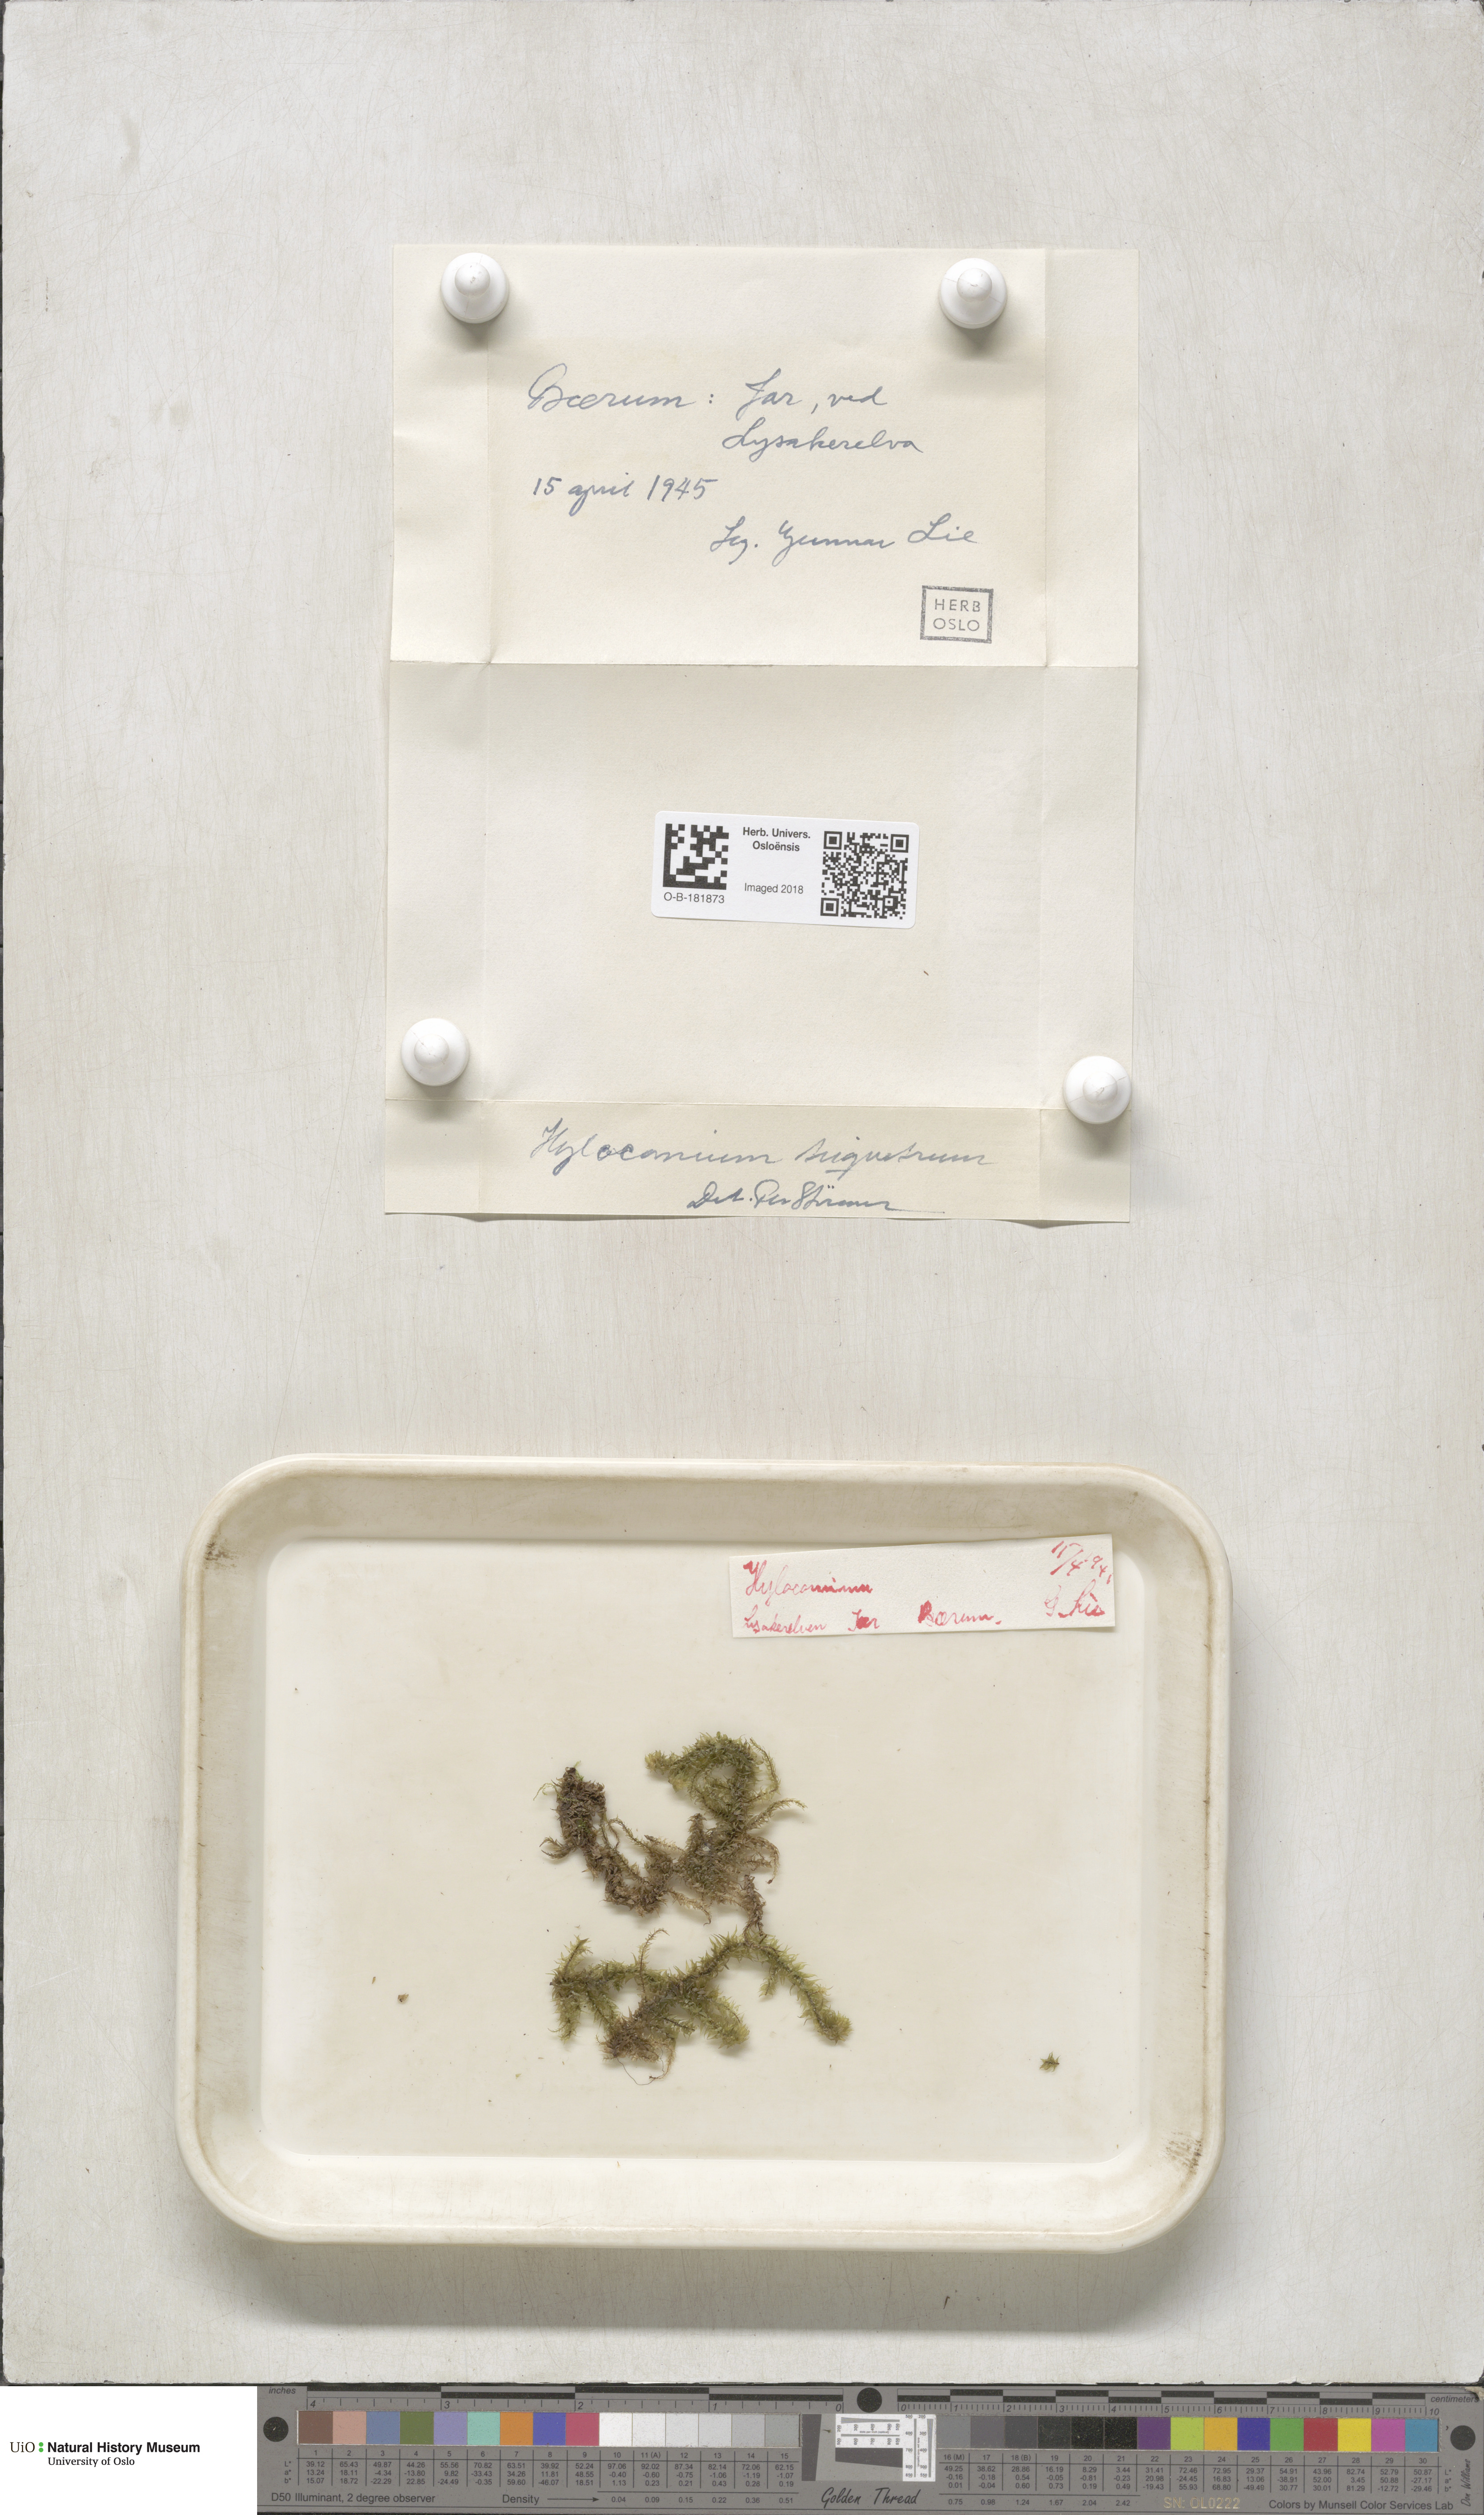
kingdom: Plantae
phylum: Bryophyta
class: Bryopsida
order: Hypnales
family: Hylocomiaceae
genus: Hylocomiadelphus
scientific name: Hylocomiadelphus triquetrus
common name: Rough goose neck moss
